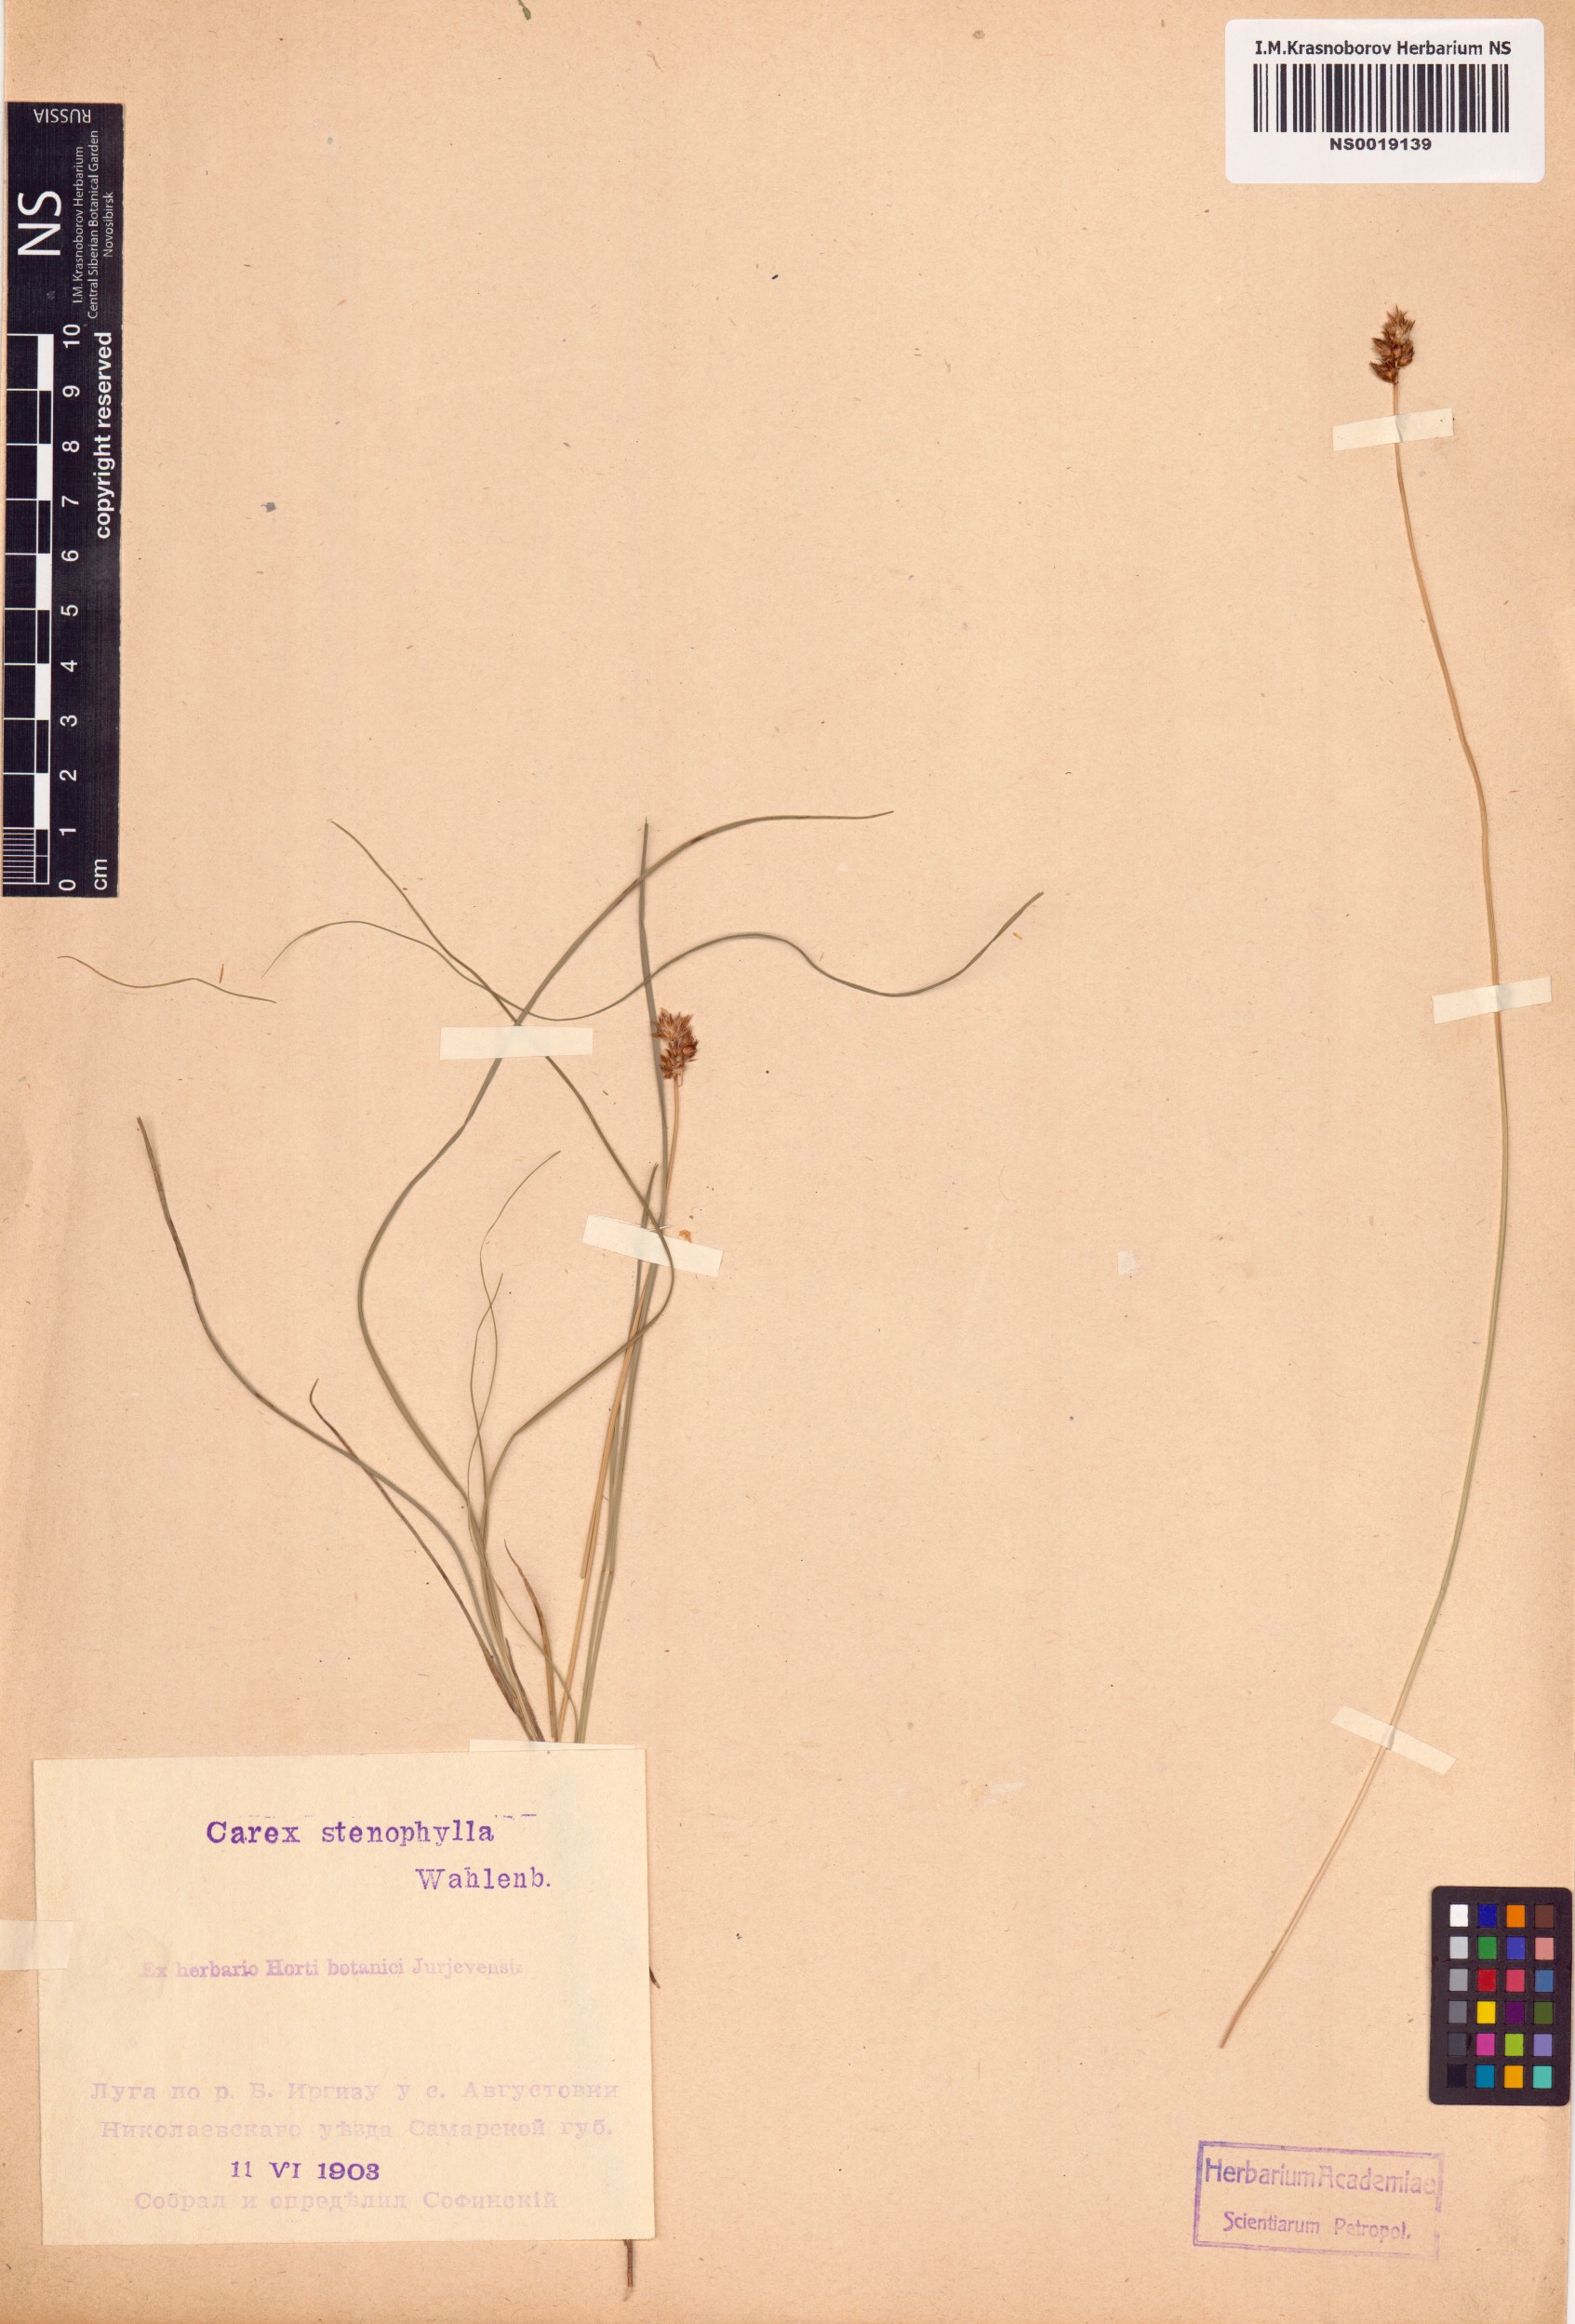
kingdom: Plantae
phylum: Tracheophyta
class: Liliopsida
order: Poales
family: Cyperaceae
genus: Carex
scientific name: Carex stenophylla
